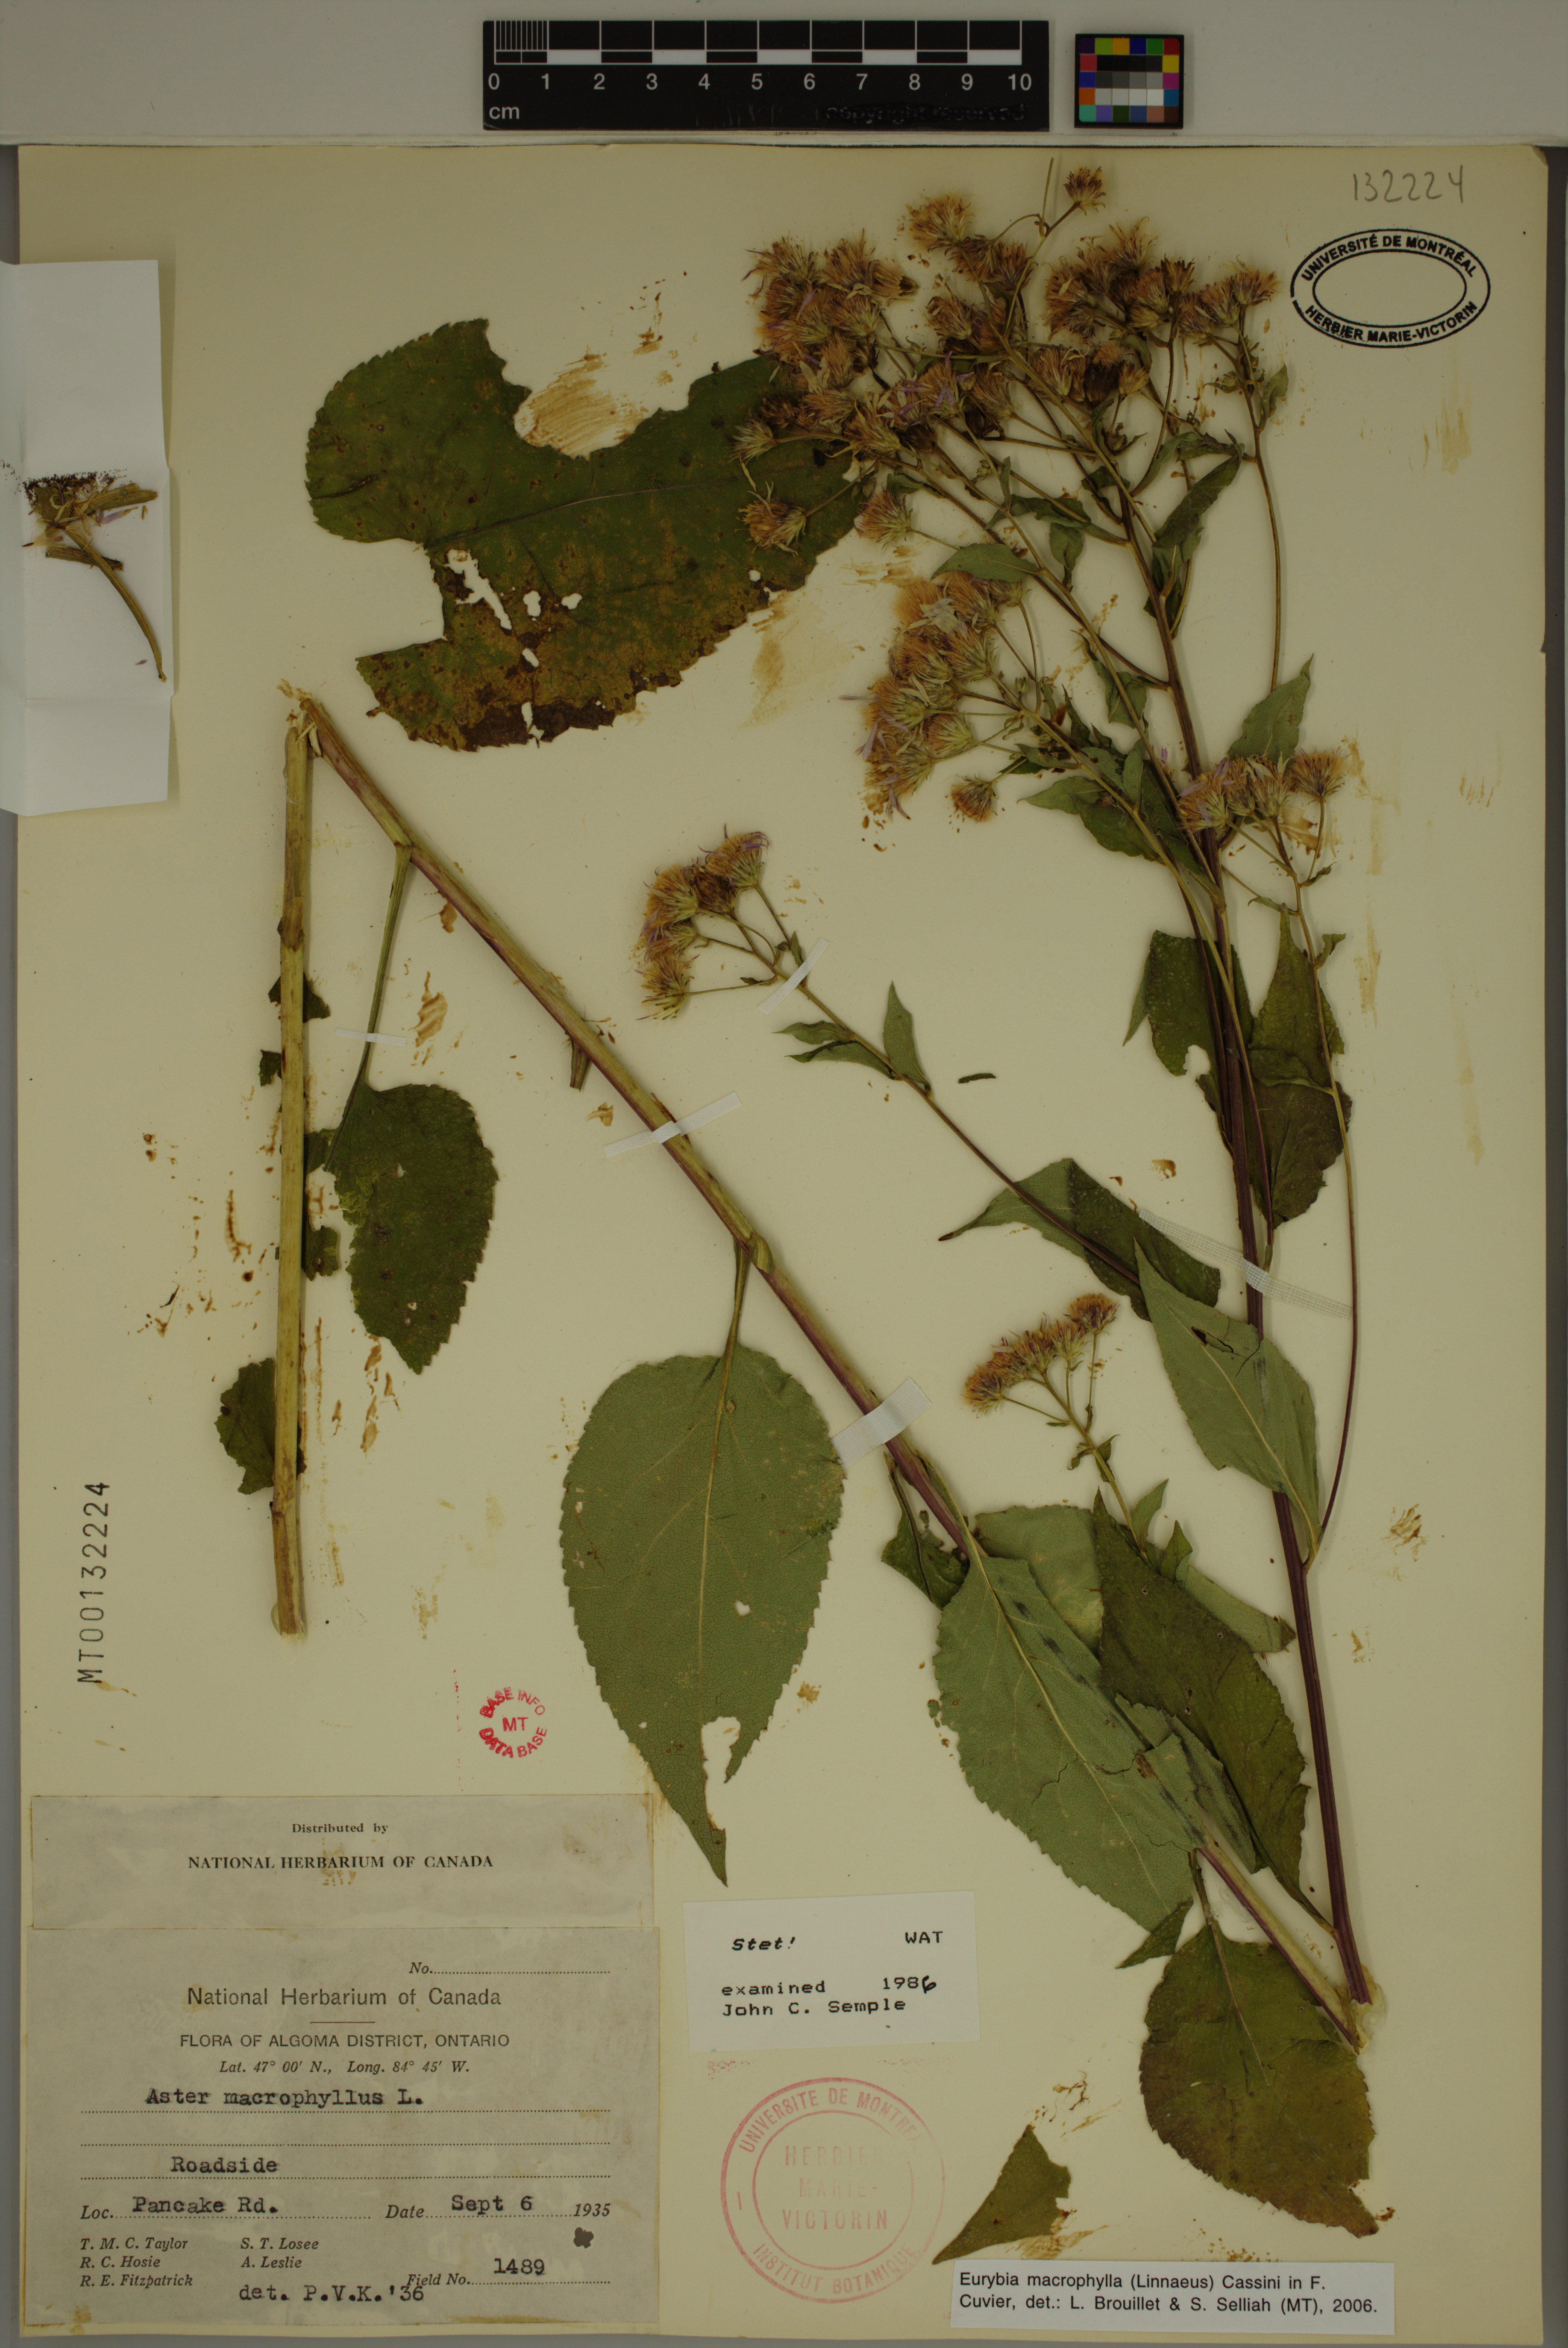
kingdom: Plantae
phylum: Tracheophyta
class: Magnoliopsida
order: Asterales
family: Asteraceae
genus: Eurybia
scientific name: Eurybia macrophylla
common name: Big-leaved aster
